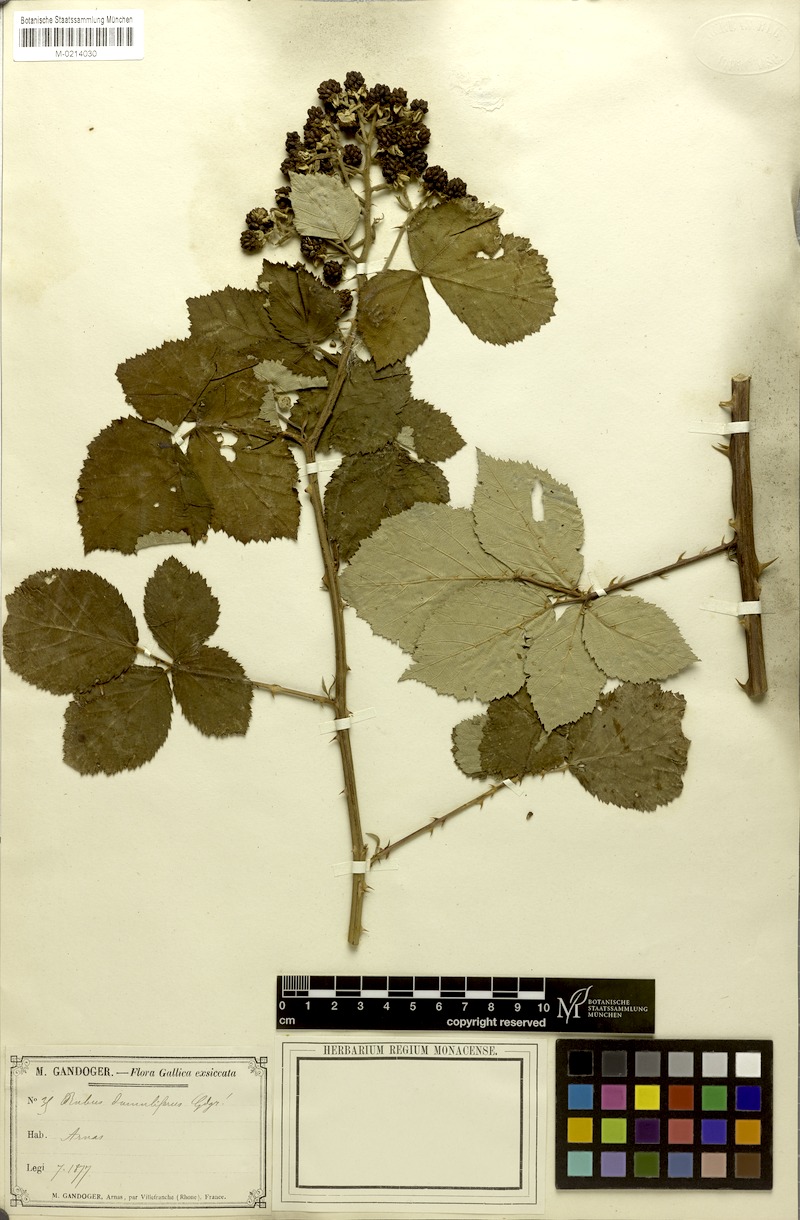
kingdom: Plantae
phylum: Tracheophyta
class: Magnoliopsida
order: Rosales
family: Rosaceae
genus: Rubus
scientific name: Rubus
